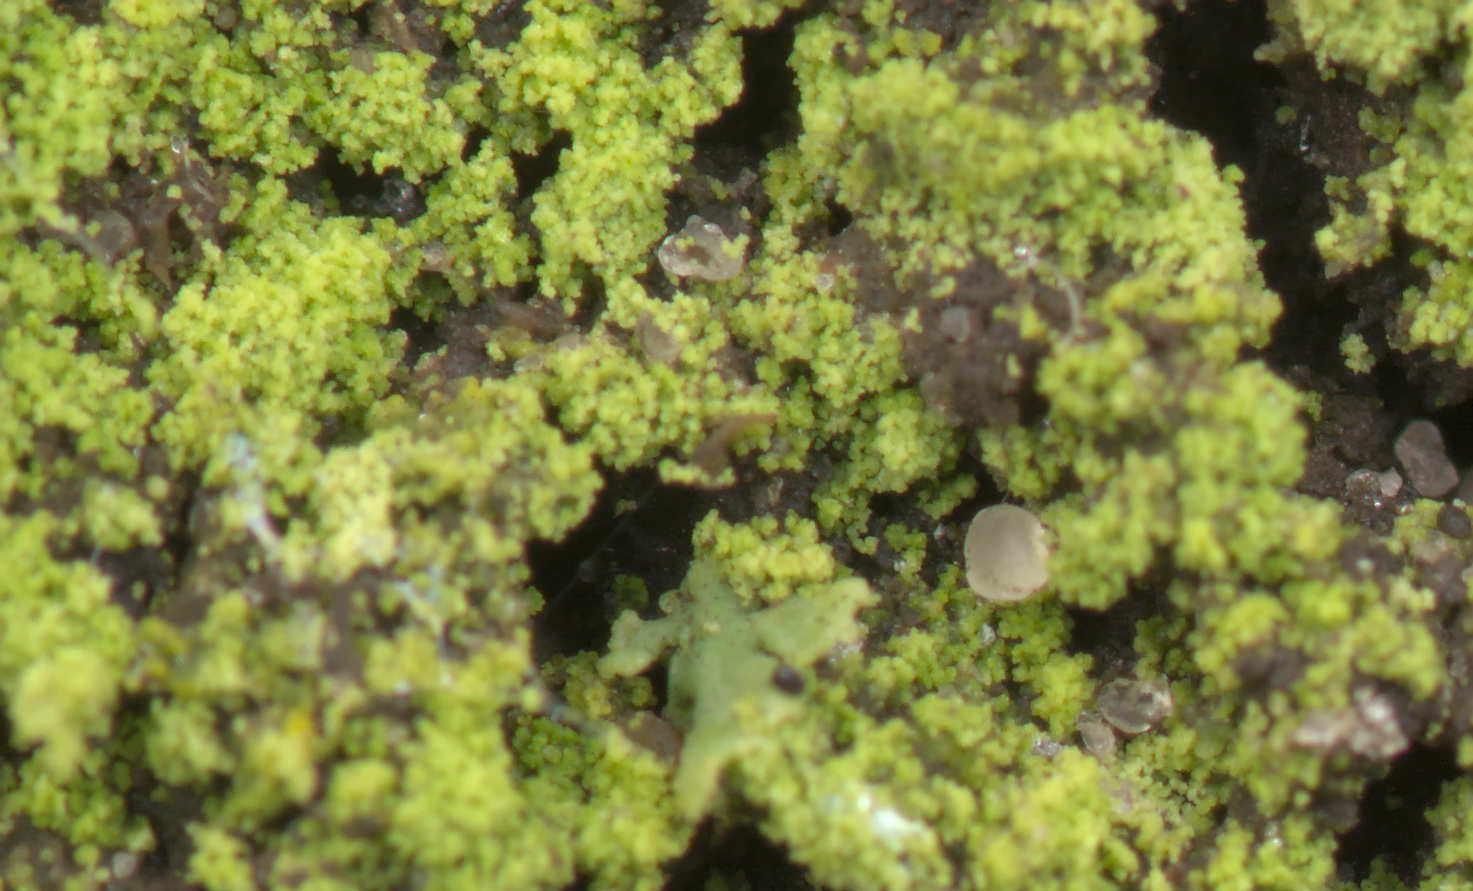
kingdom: Fungi
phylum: Ascomycota
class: Lecanoromycetes
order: Lecanorales
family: Ramalinaceae
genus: Bacidina
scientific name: Bacidina adastra
